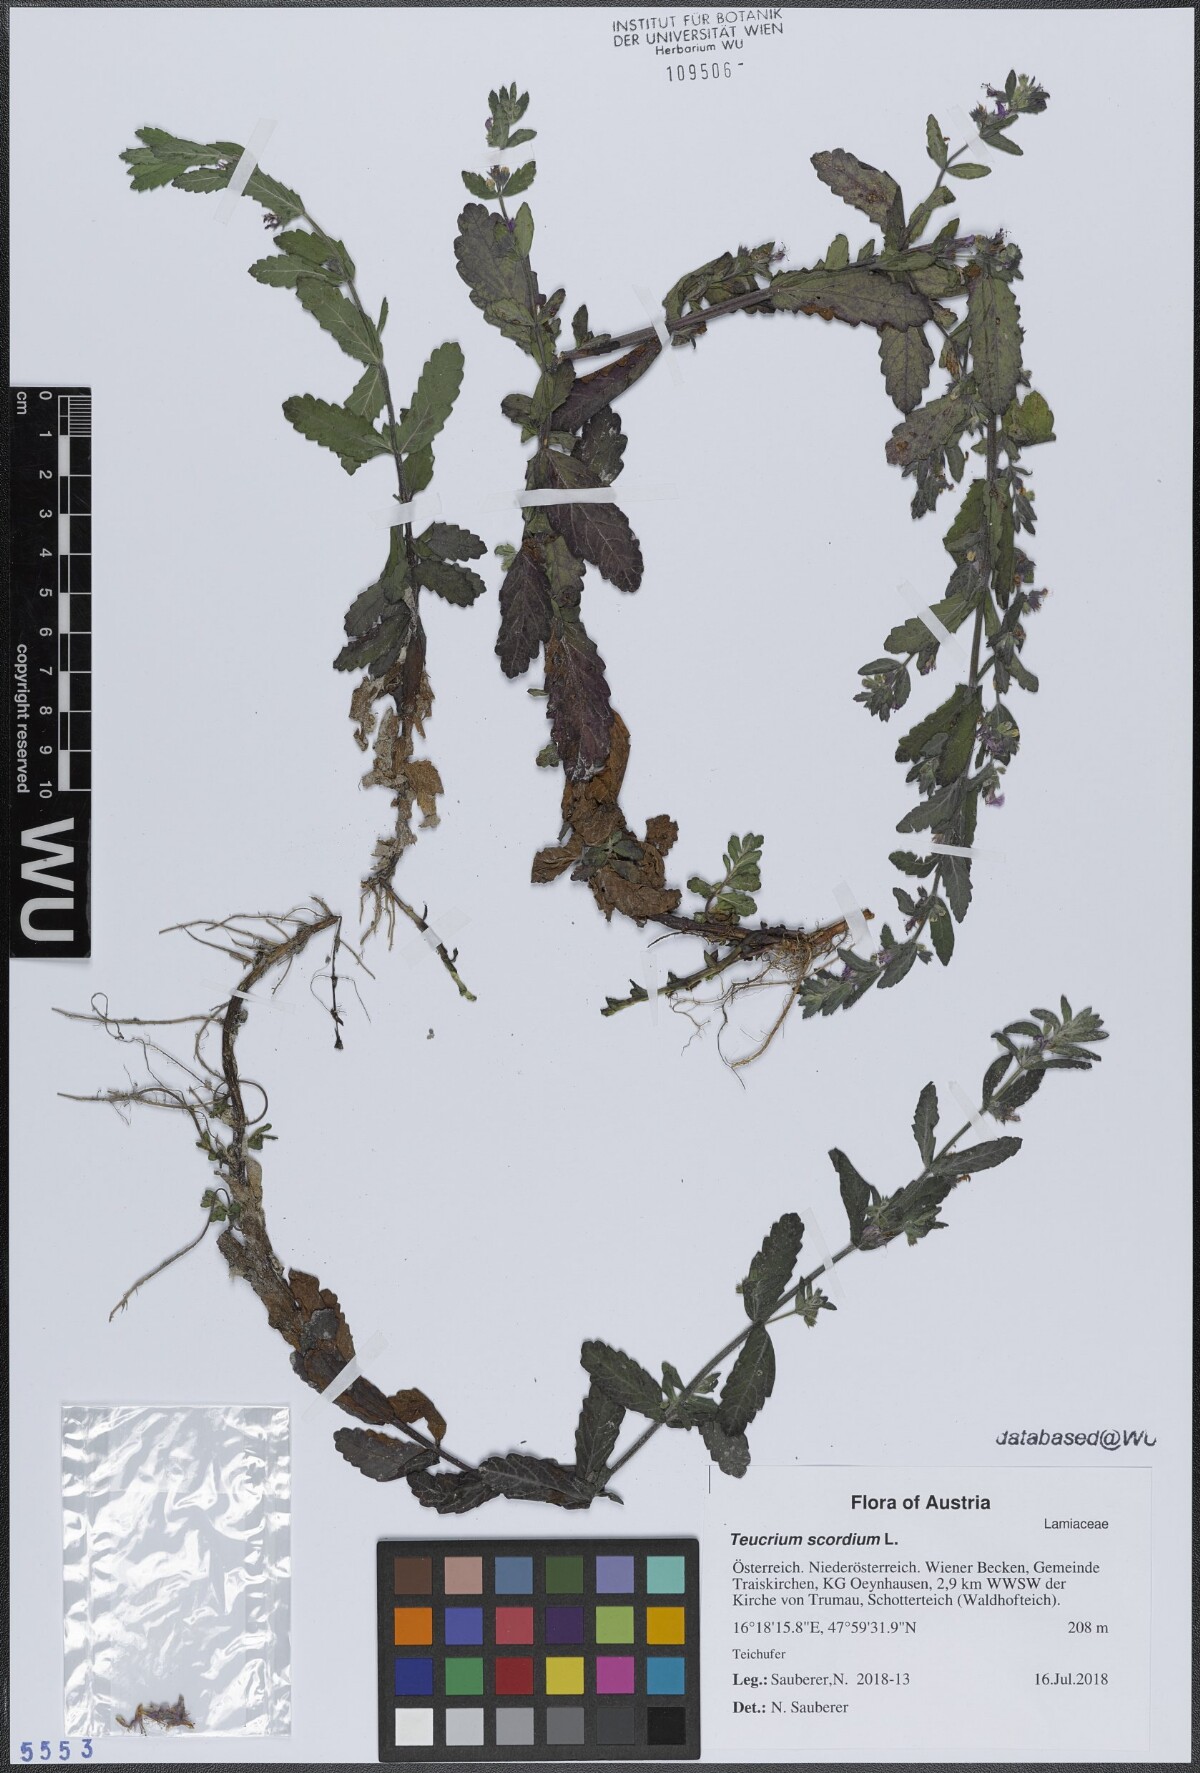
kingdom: Plantae
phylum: Tracheophyta
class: Magnoliopsida
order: Lamiales
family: Lamiaceae
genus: Teucrium
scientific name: Teucrium scordium
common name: Water germander
